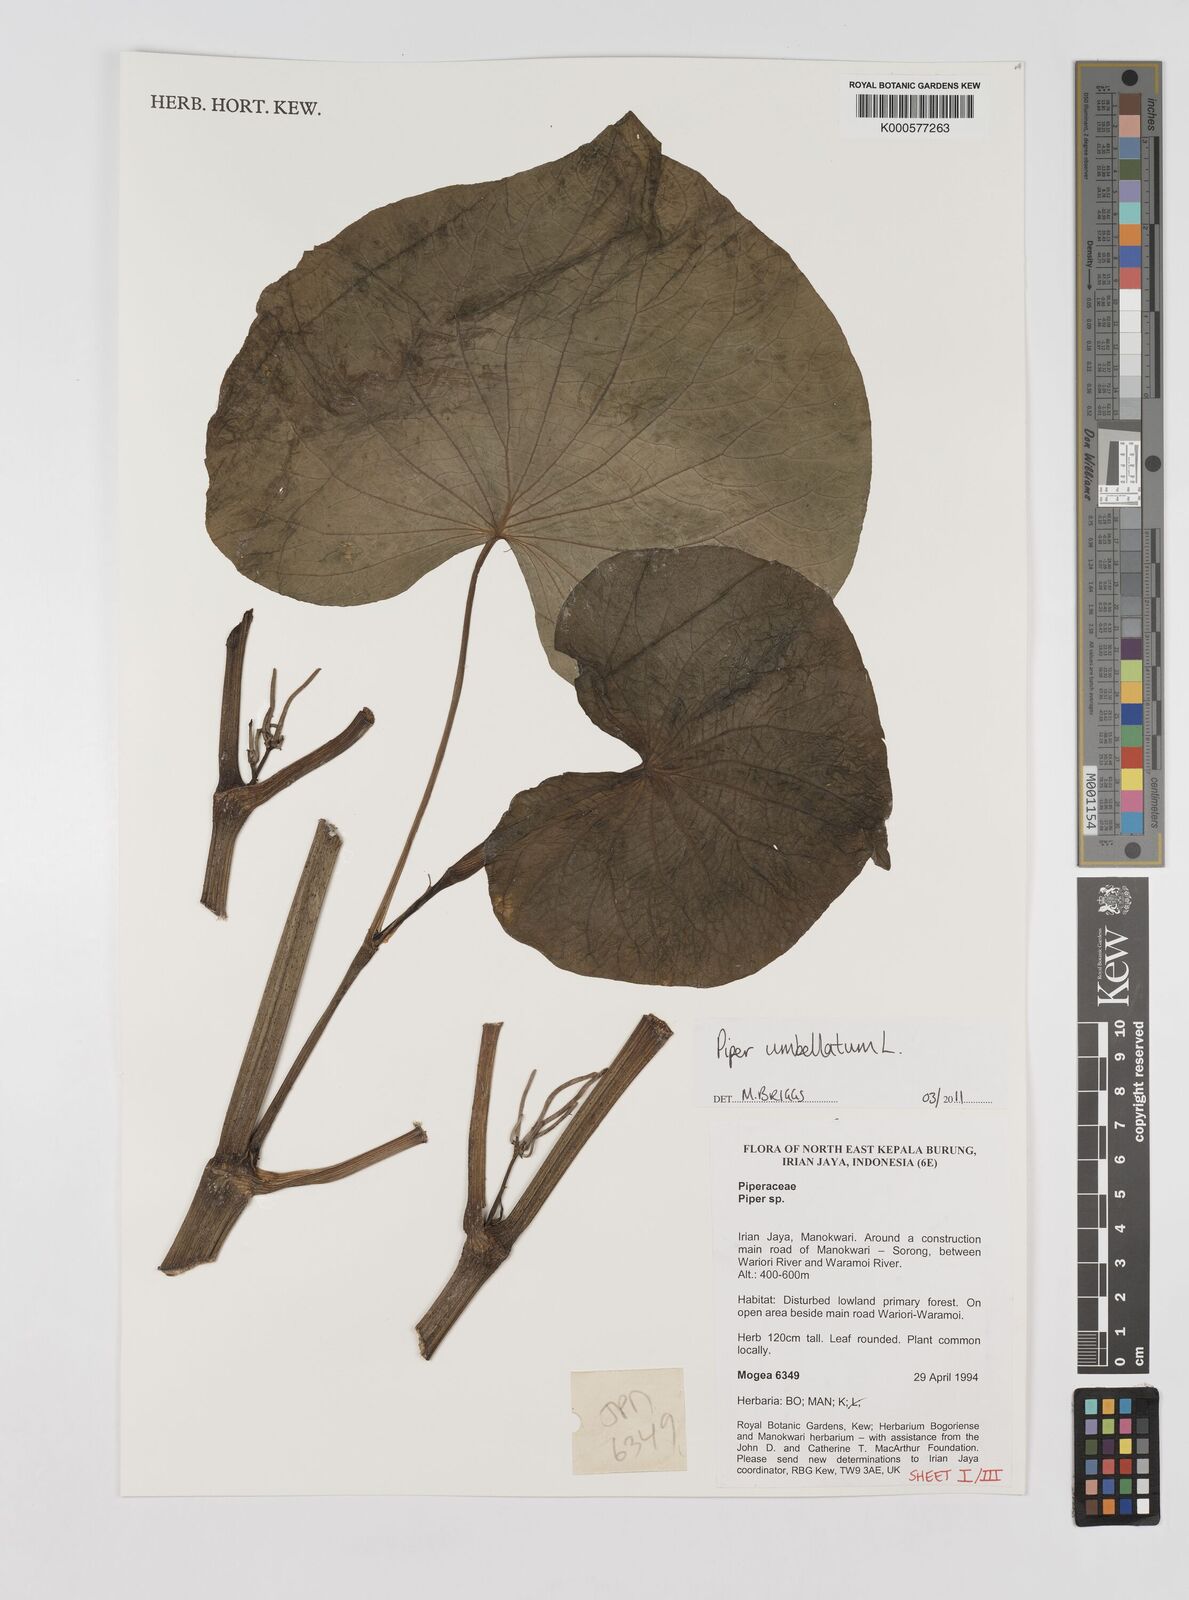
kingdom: Plantae
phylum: Tracheophyta
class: Magnoliopsida
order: Piperales
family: Piperaceae
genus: Piper
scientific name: Piper umbellatum
